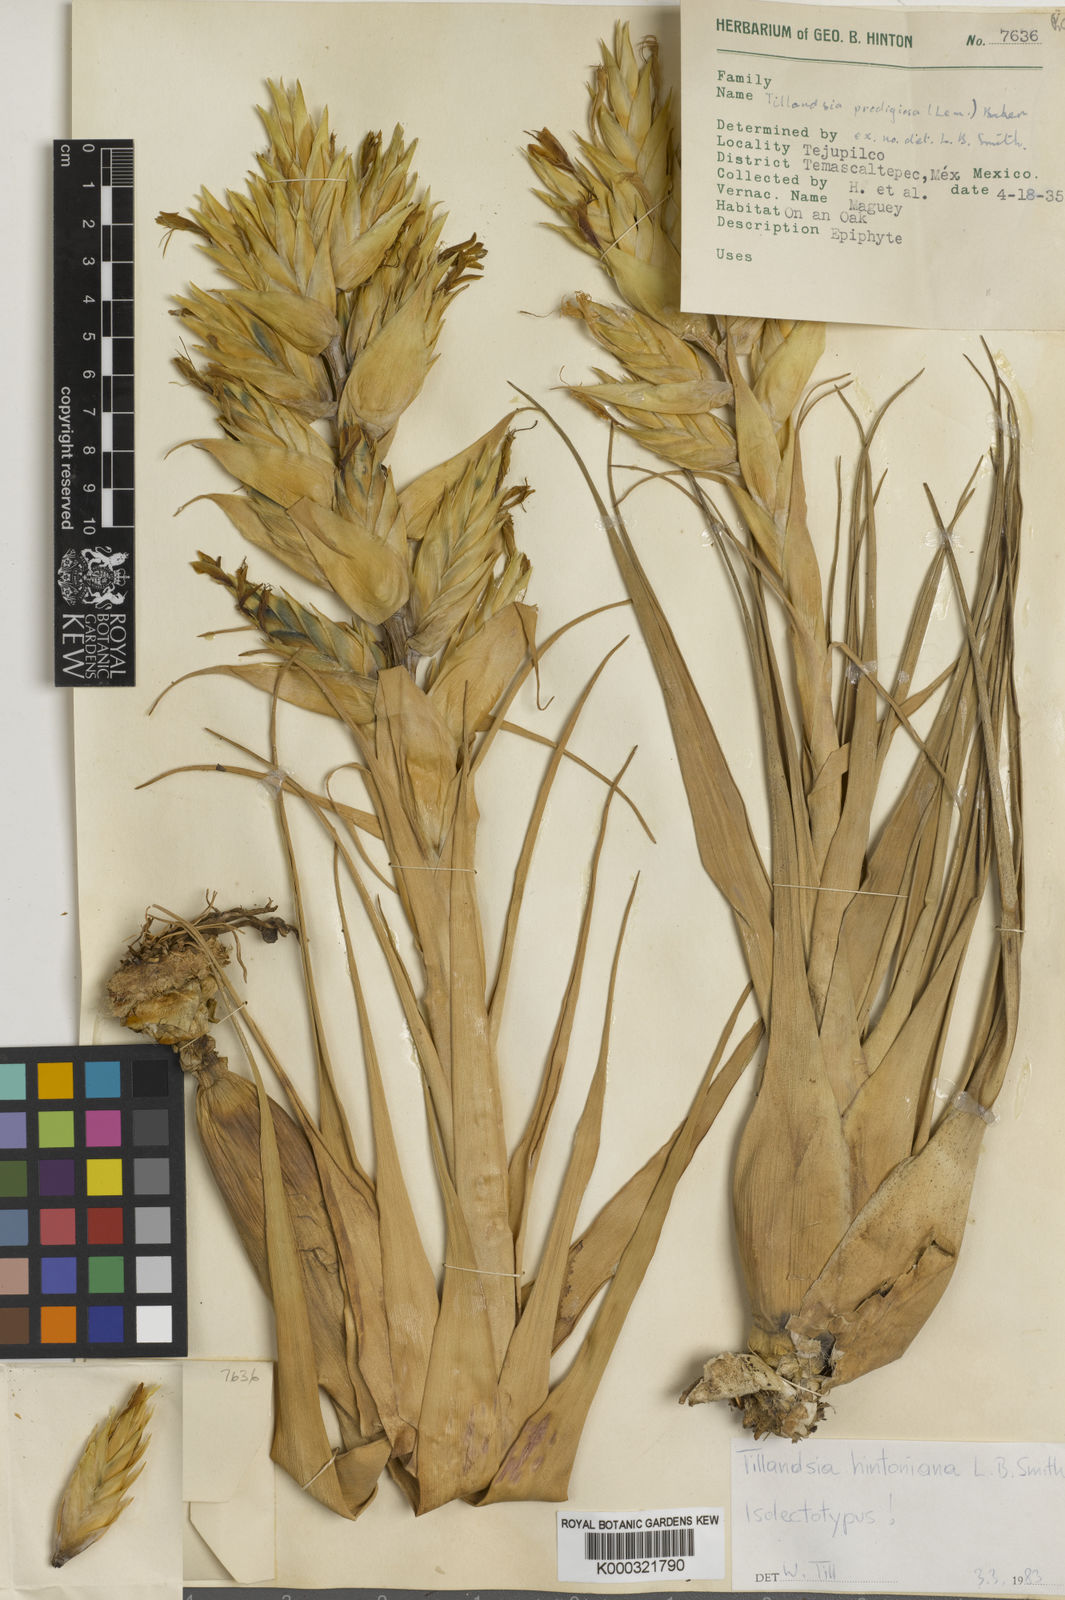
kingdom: Plantae
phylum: Tracheophyta
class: Liliopsida
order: Poales
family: Bromeliaceae
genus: Tillandsia
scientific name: Tillandsia
